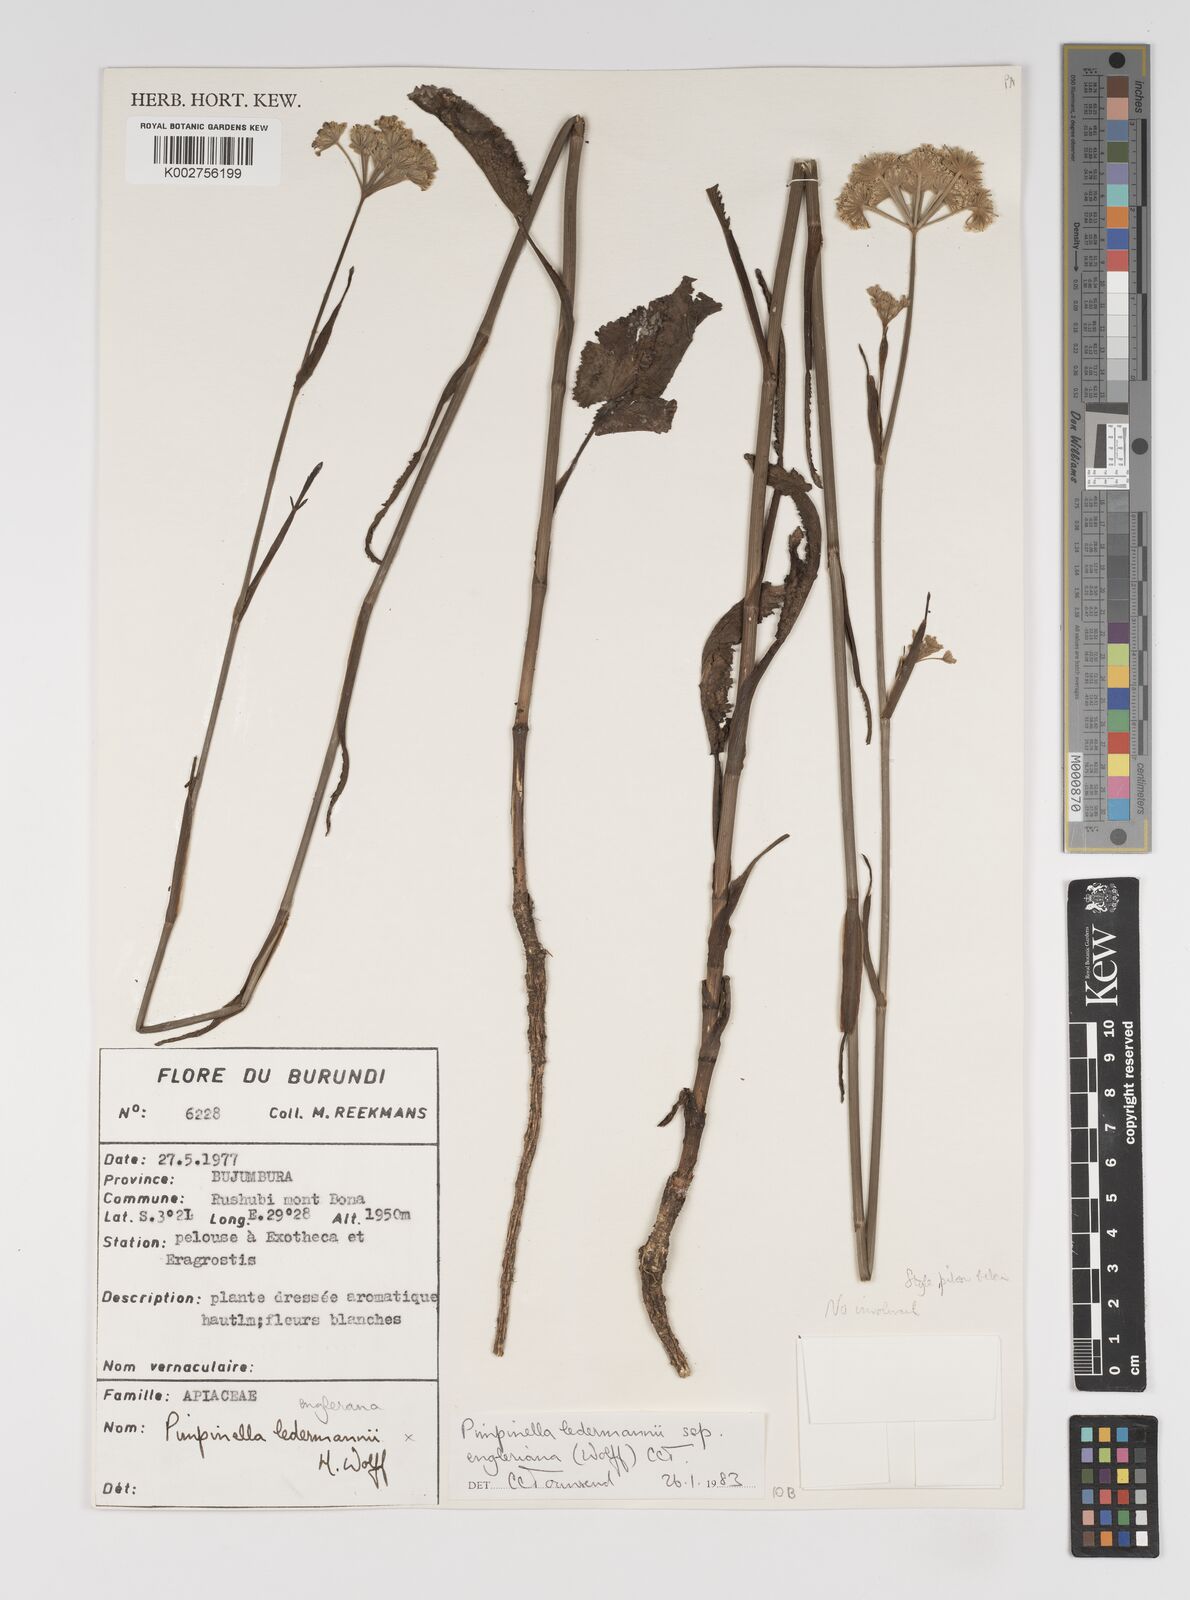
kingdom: Plantae
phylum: Tracheophyta
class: Magnoliopsida
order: Apiales
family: Apiaceae
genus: Pimpinella
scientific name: Pimpinella ledermannii
